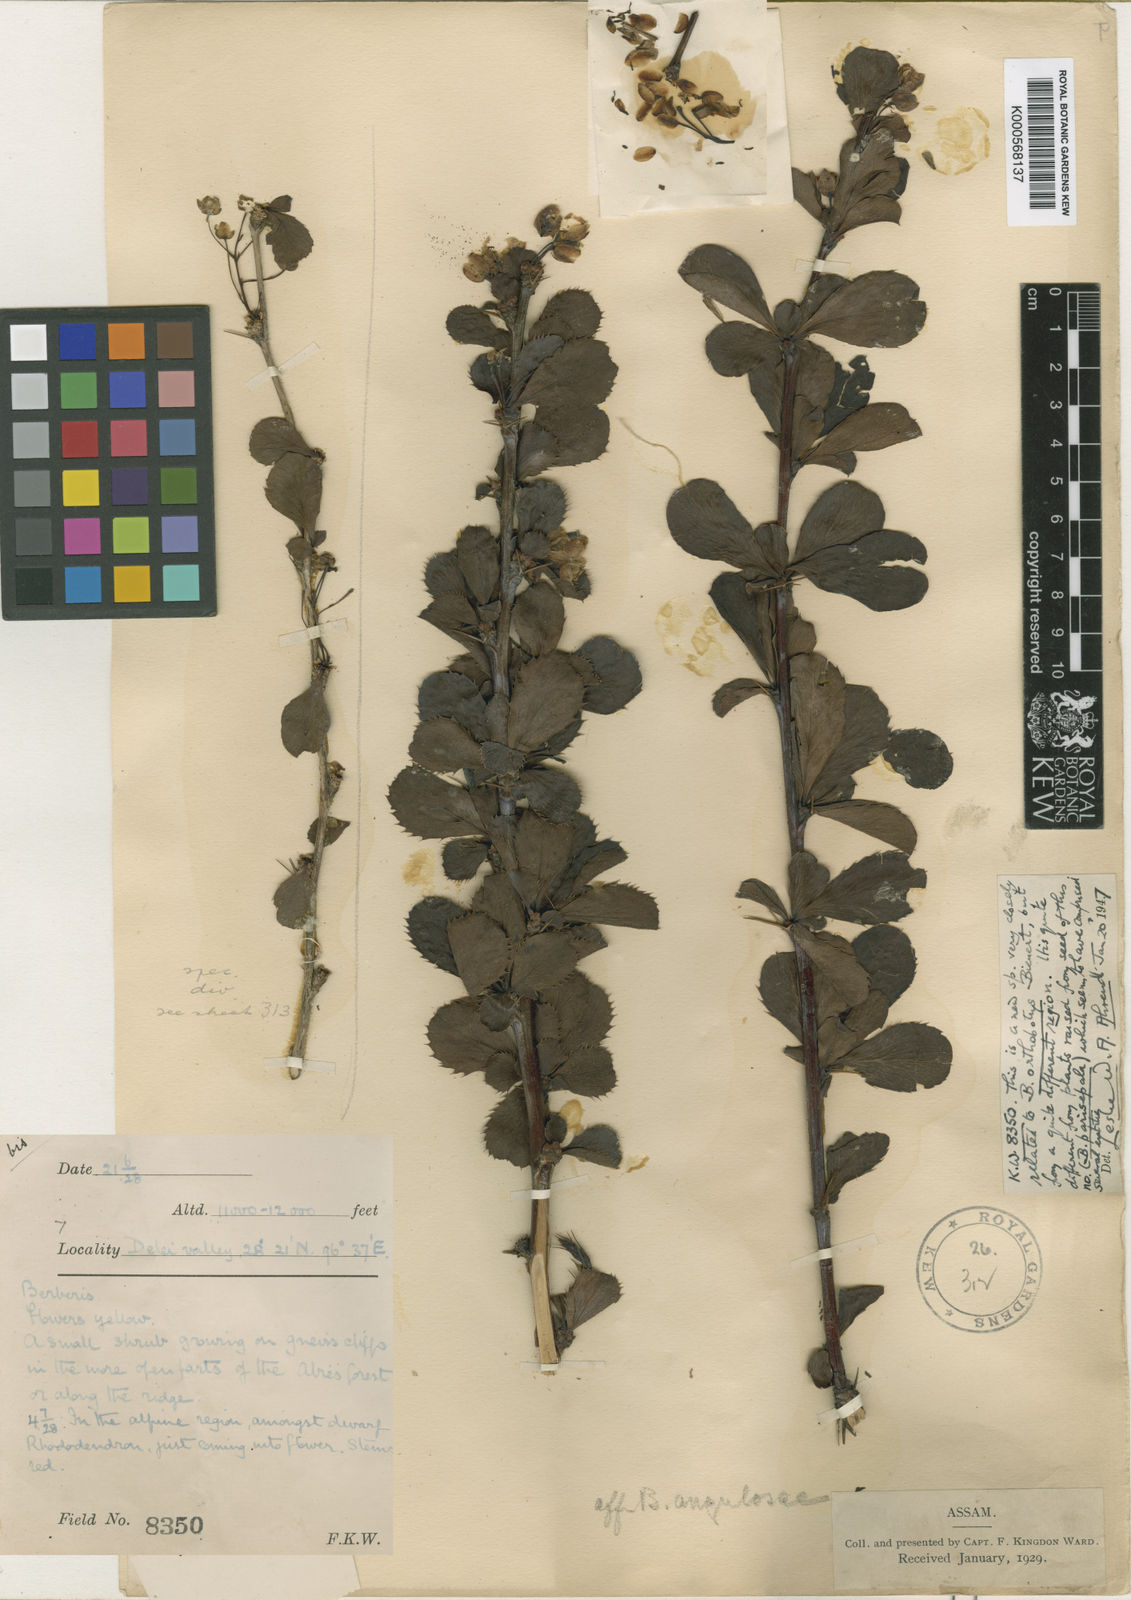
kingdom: Plantae
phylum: Tracheophyta
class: Magnoliopsida
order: Ranunculales
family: Berberidaceae
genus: Berberis
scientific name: Berberis orthobotrys
